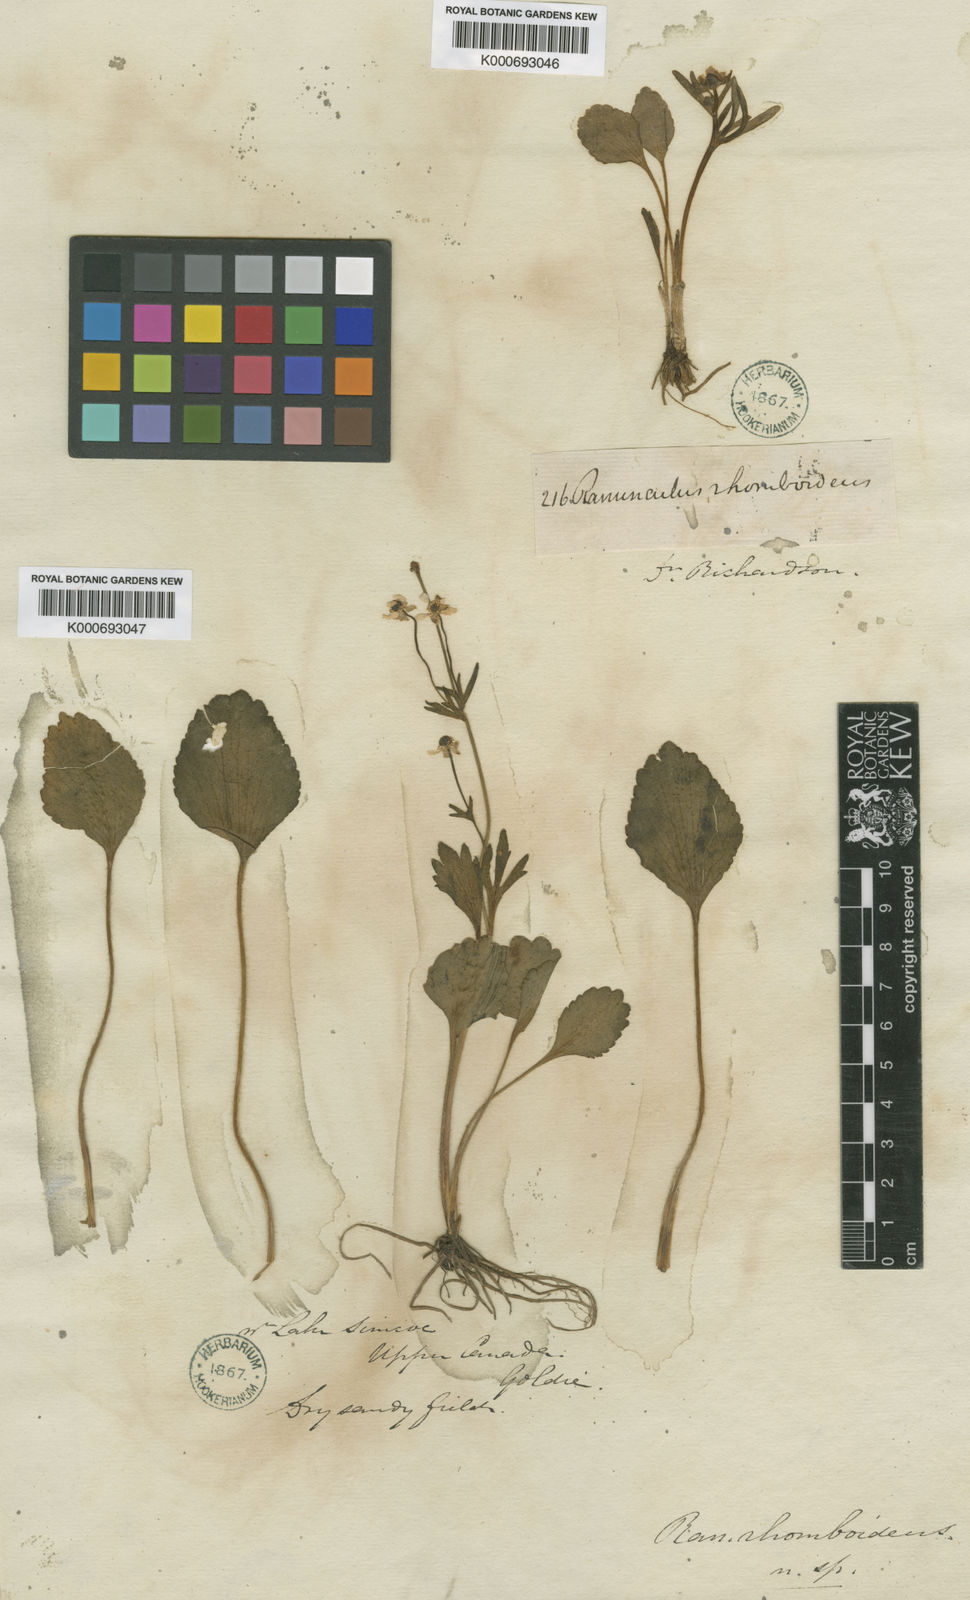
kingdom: Plantae
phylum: Tracheophyta
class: Magnoliopsida
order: Ranunculales
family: Ranunculaceae
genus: Ranunculus
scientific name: Ranunculus rhomboideus
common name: Prairie buttercup
